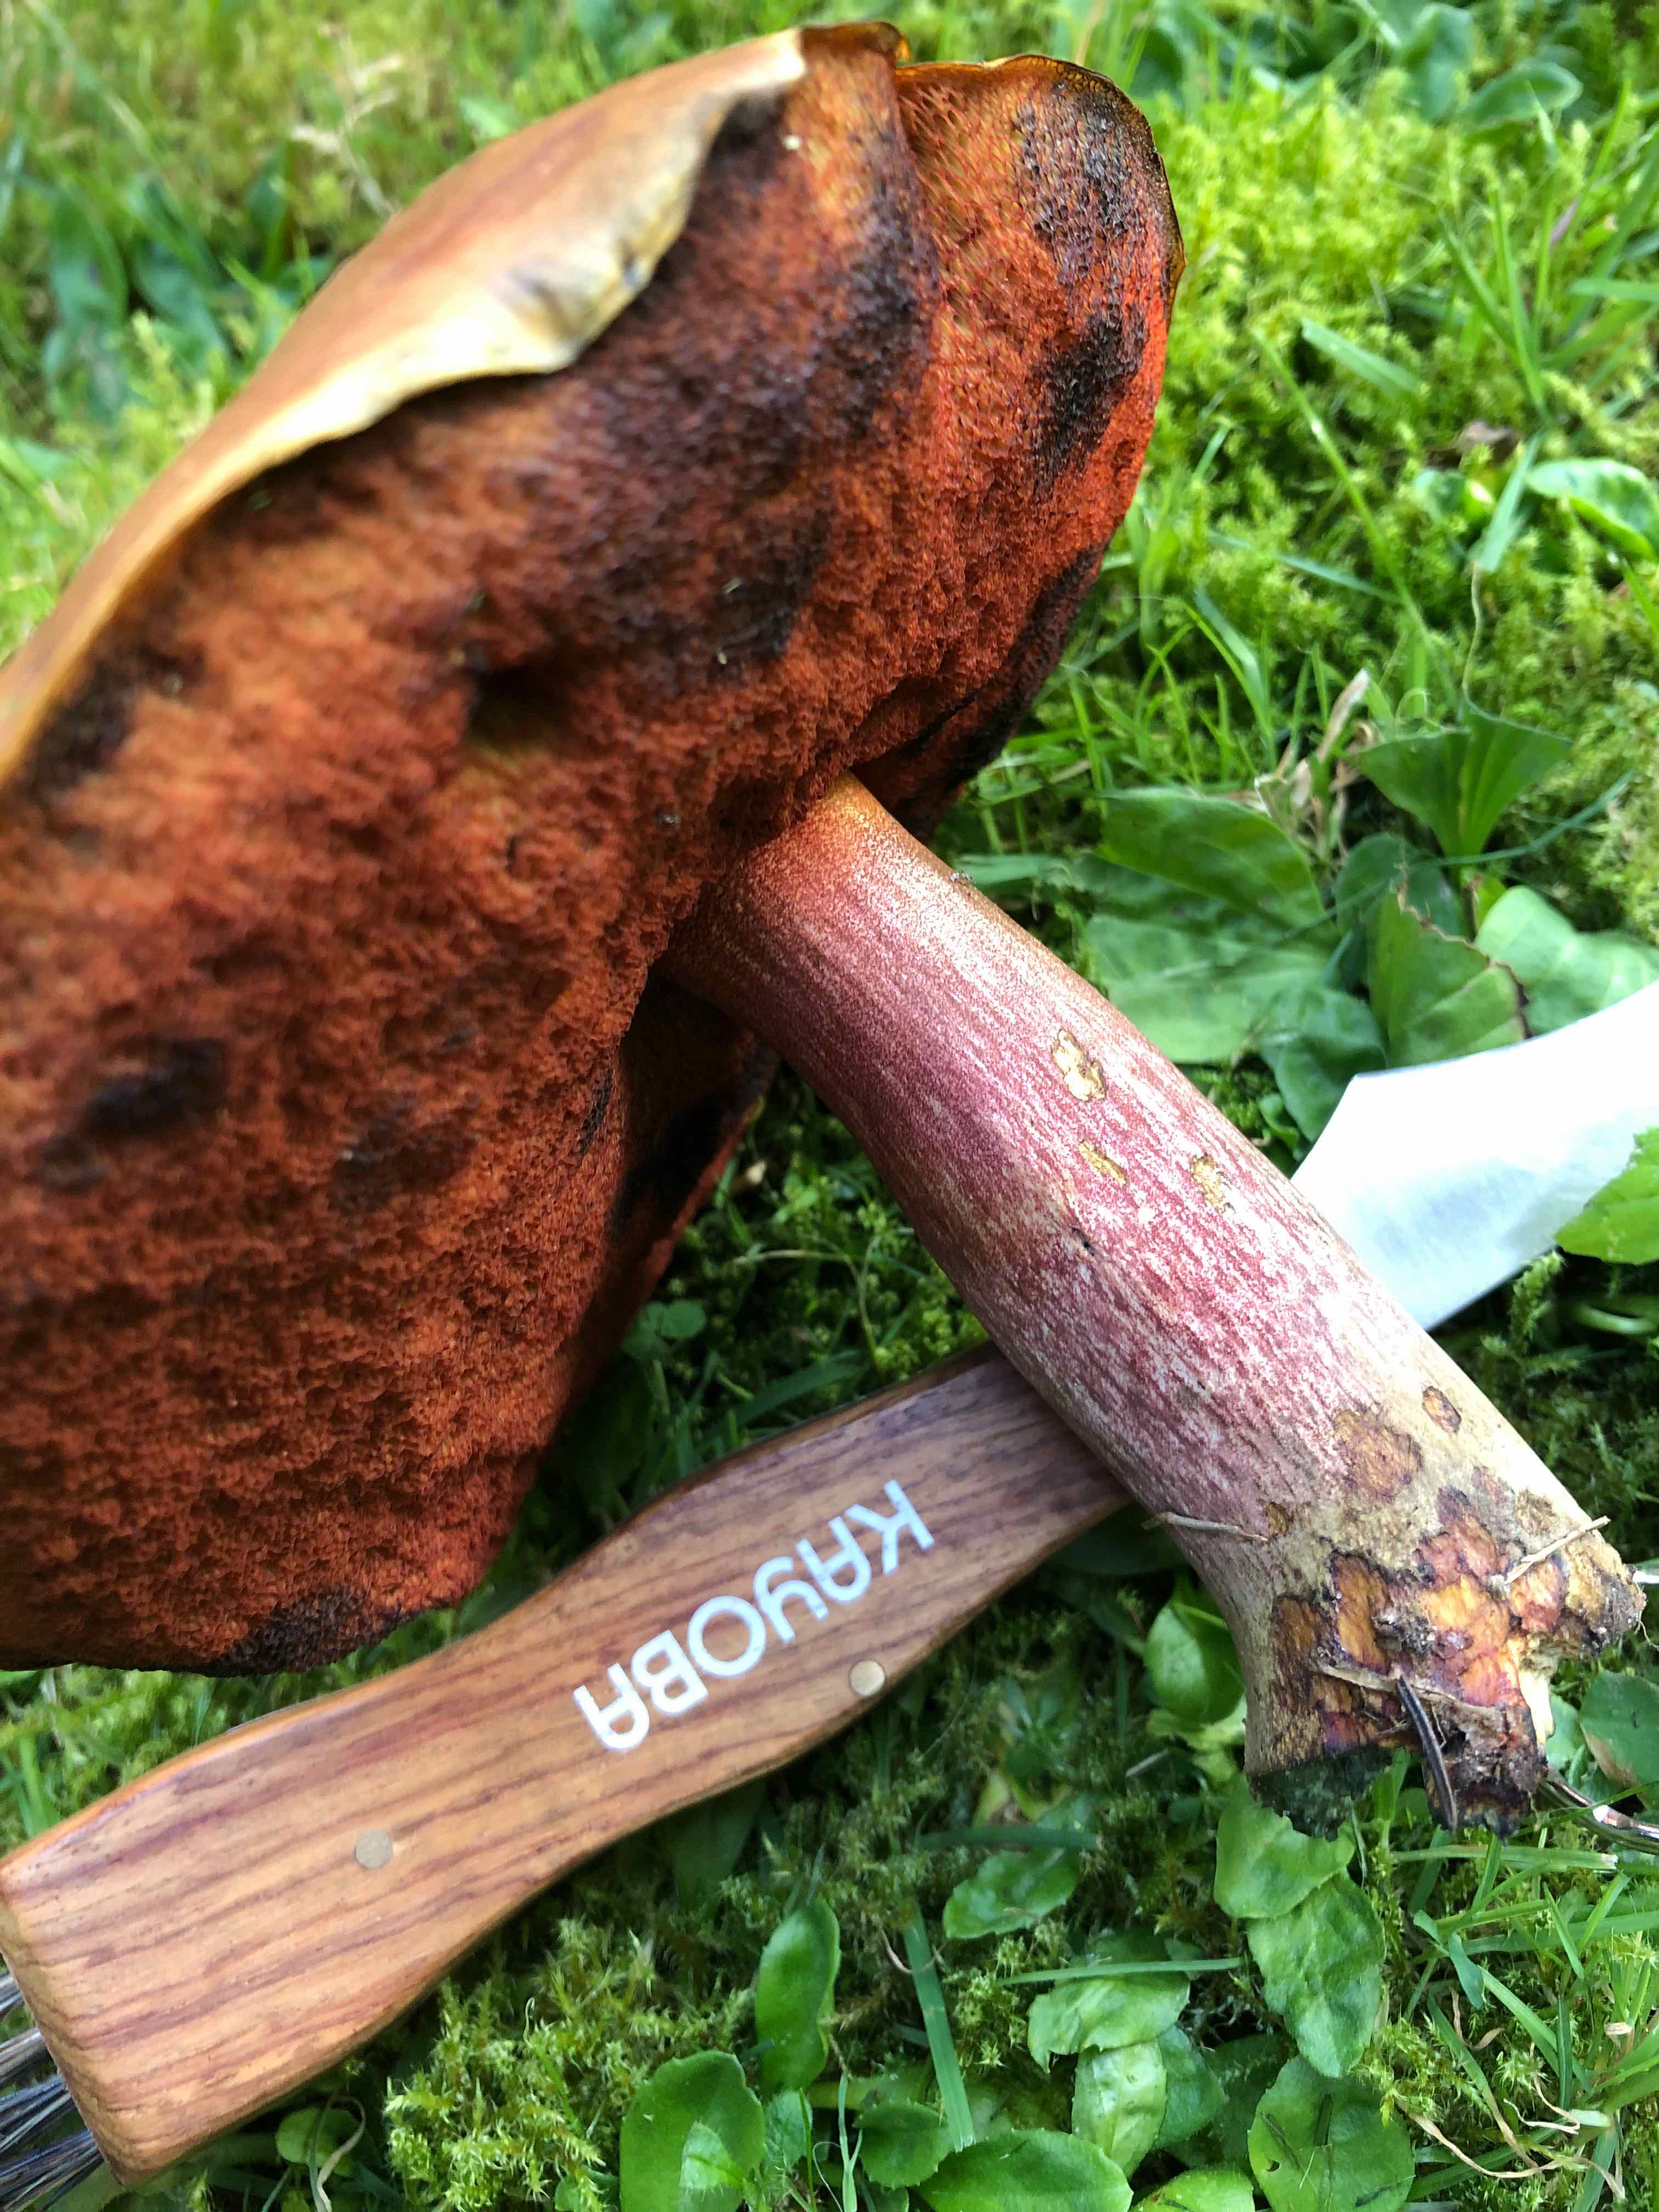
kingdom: Fungi
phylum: Basidiomycota
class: Agaricomycetes
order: Boletales
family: Boletaceae
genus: Neoboletus
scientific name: Neoboletus erythropus
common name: punktstokket indigorørhat
